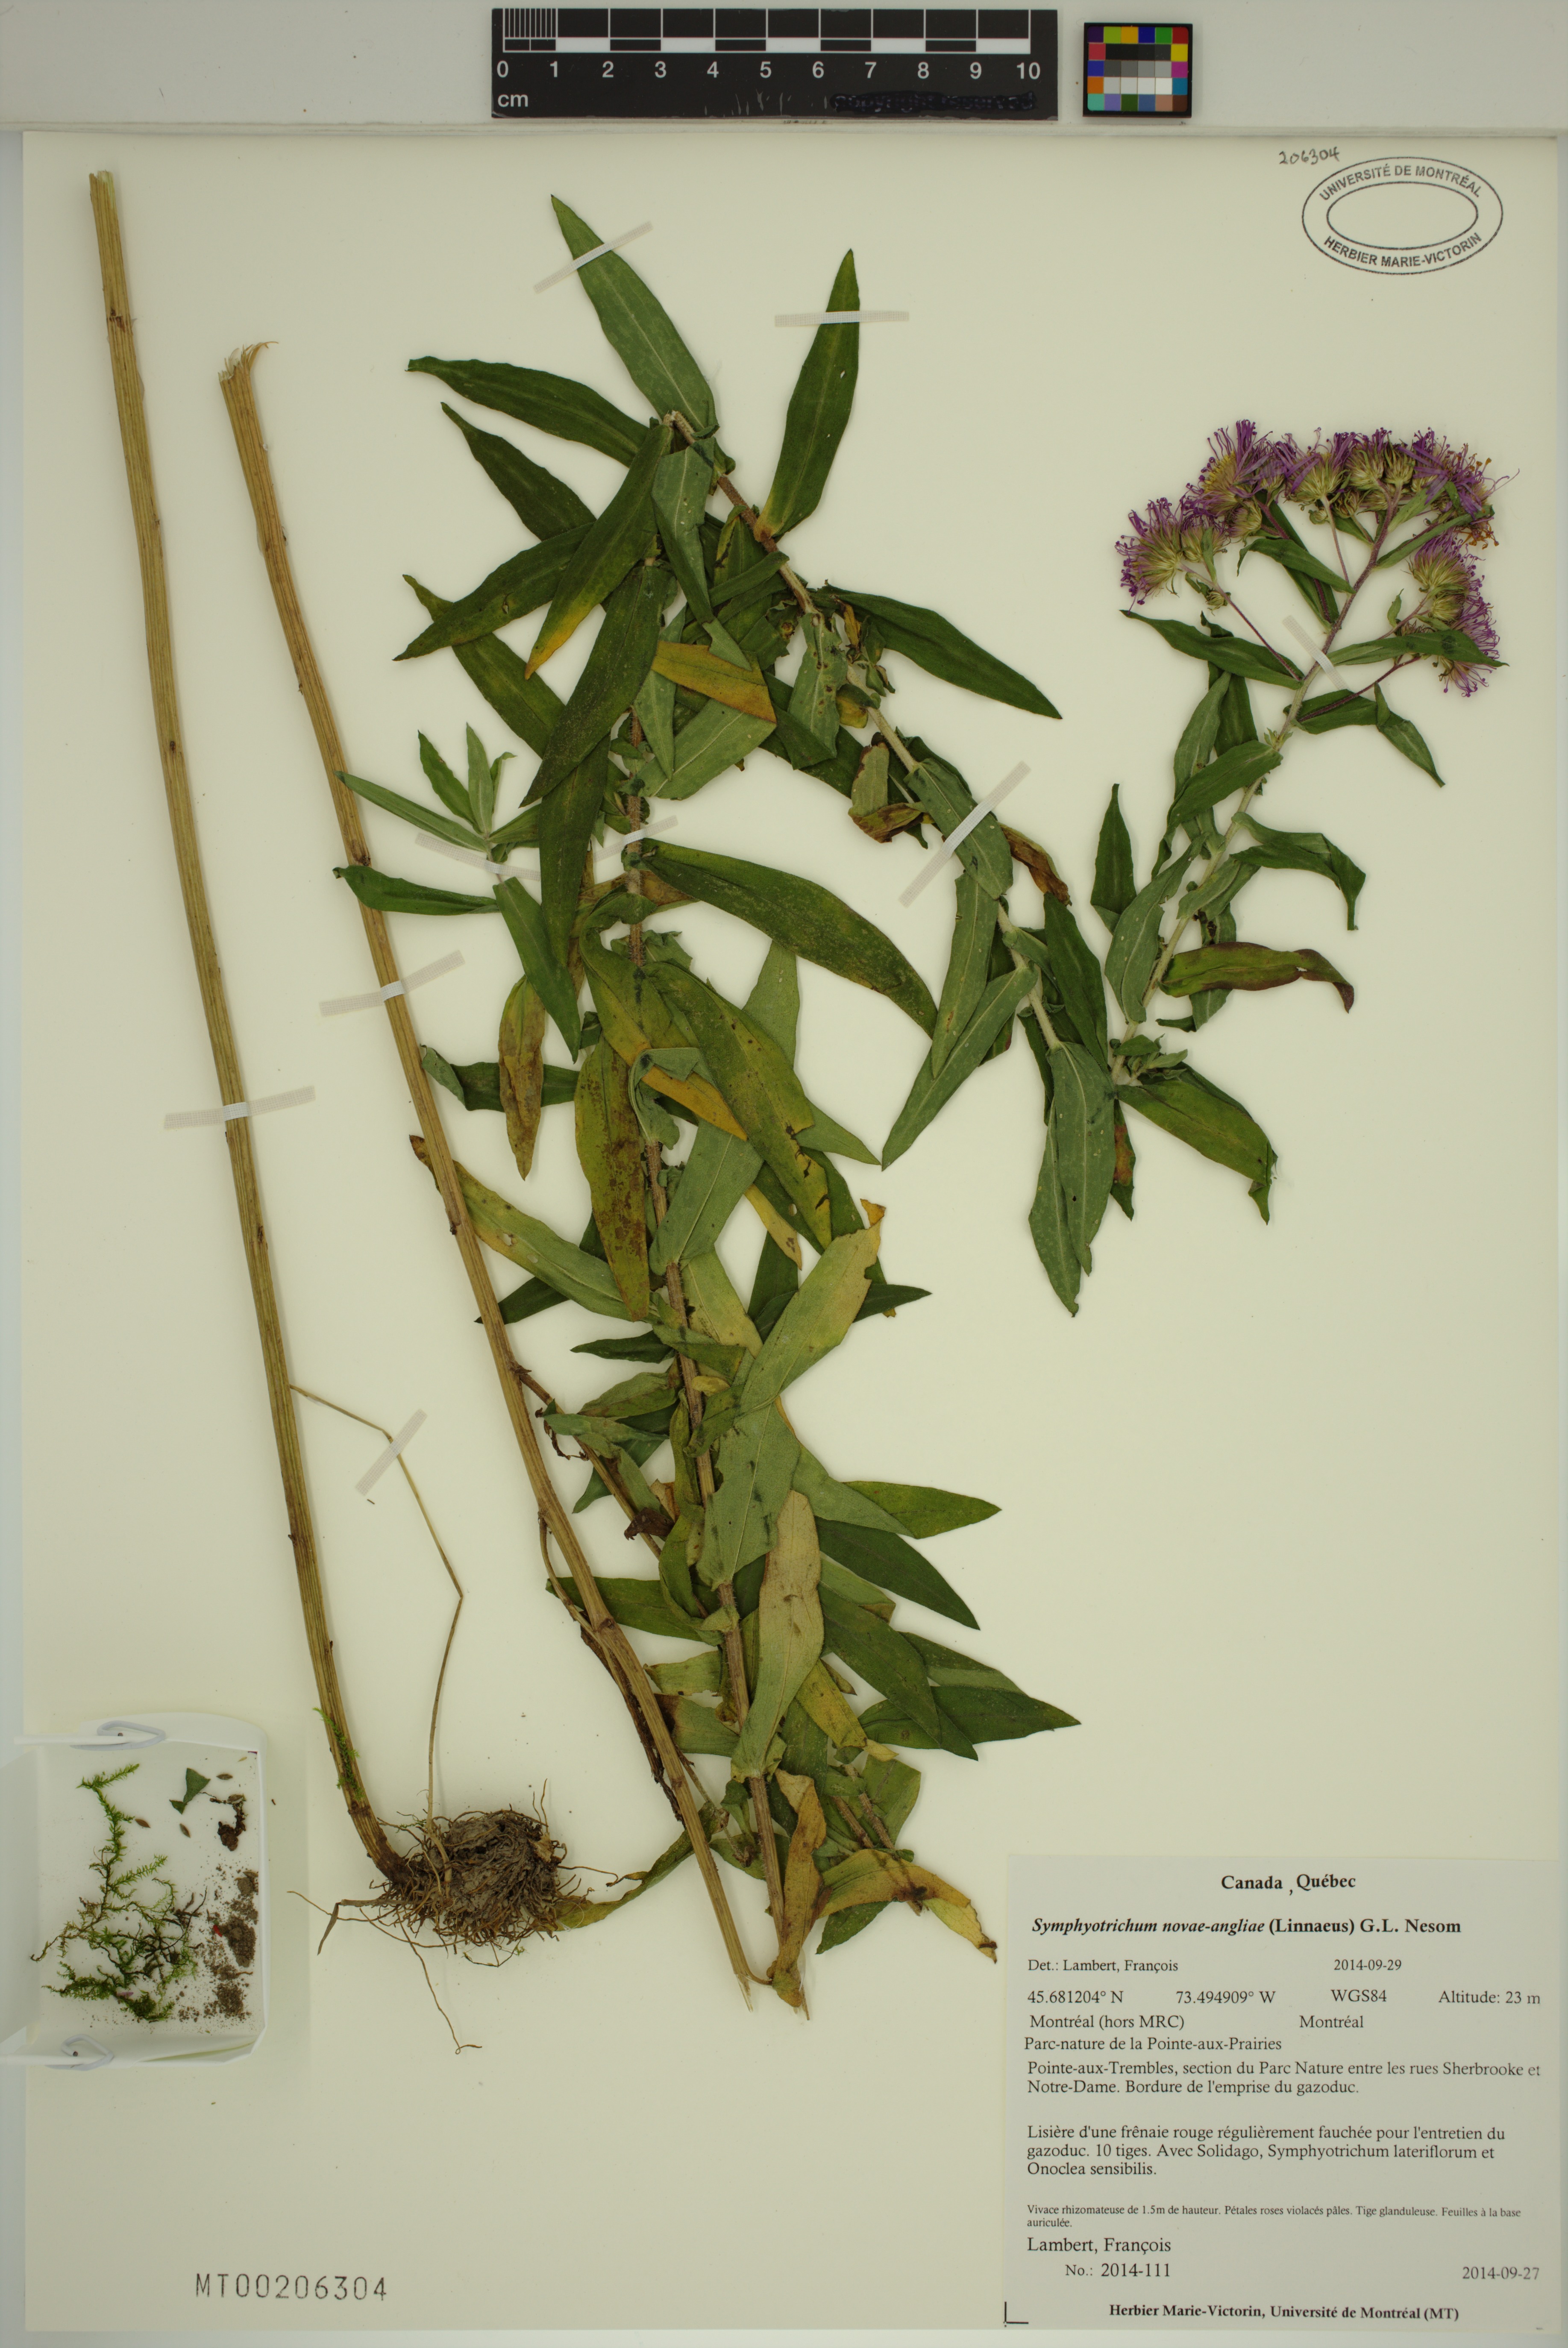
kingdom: Plantae
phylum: Tracheophyta
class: Magnoliopsida
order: Asterales
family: Asteraceae
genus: Symphyotrichum
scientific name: Symphyotrichum novae-angliae
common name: Michaelmas daisy
